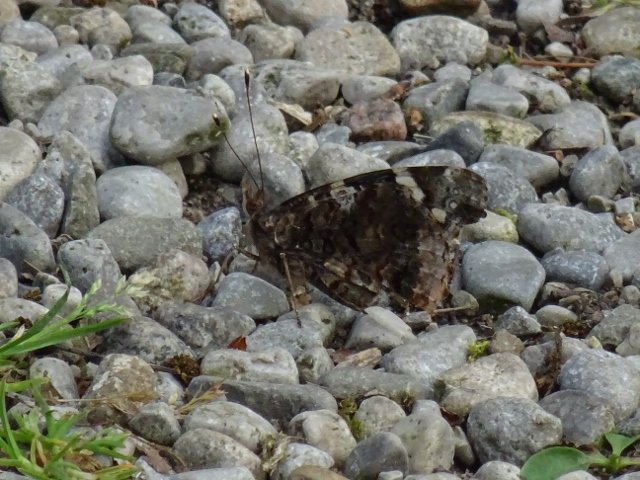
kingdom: Animalia
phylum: Arthropoda
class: Insecta
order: Lepidoptera
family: Nymphalidae
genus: Vanessa
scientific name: Vanessa atalanta
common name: Red Admiral
